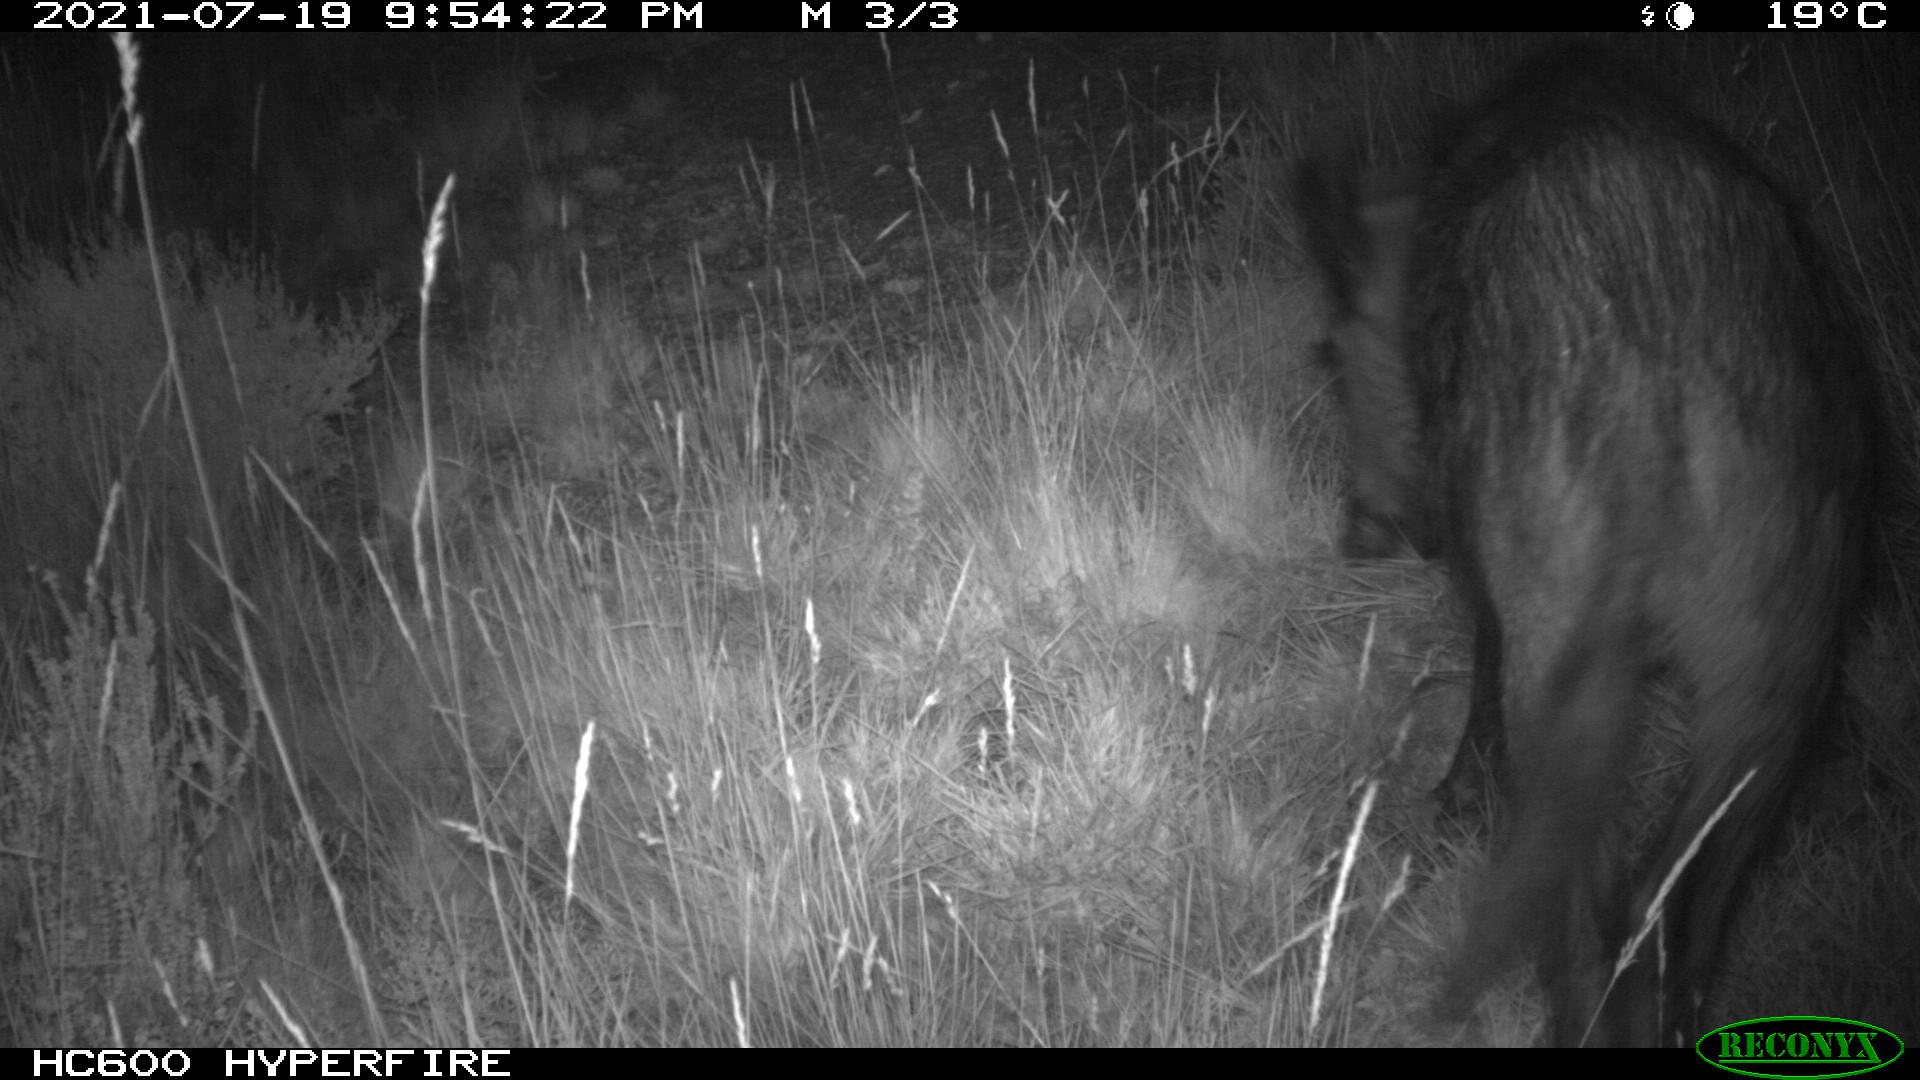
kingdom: Animalia
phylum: Chordata
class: Mammalia
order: Artiodactyla
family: Suidae
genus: Sus
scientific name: Sus scrofa
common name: Wild boar
